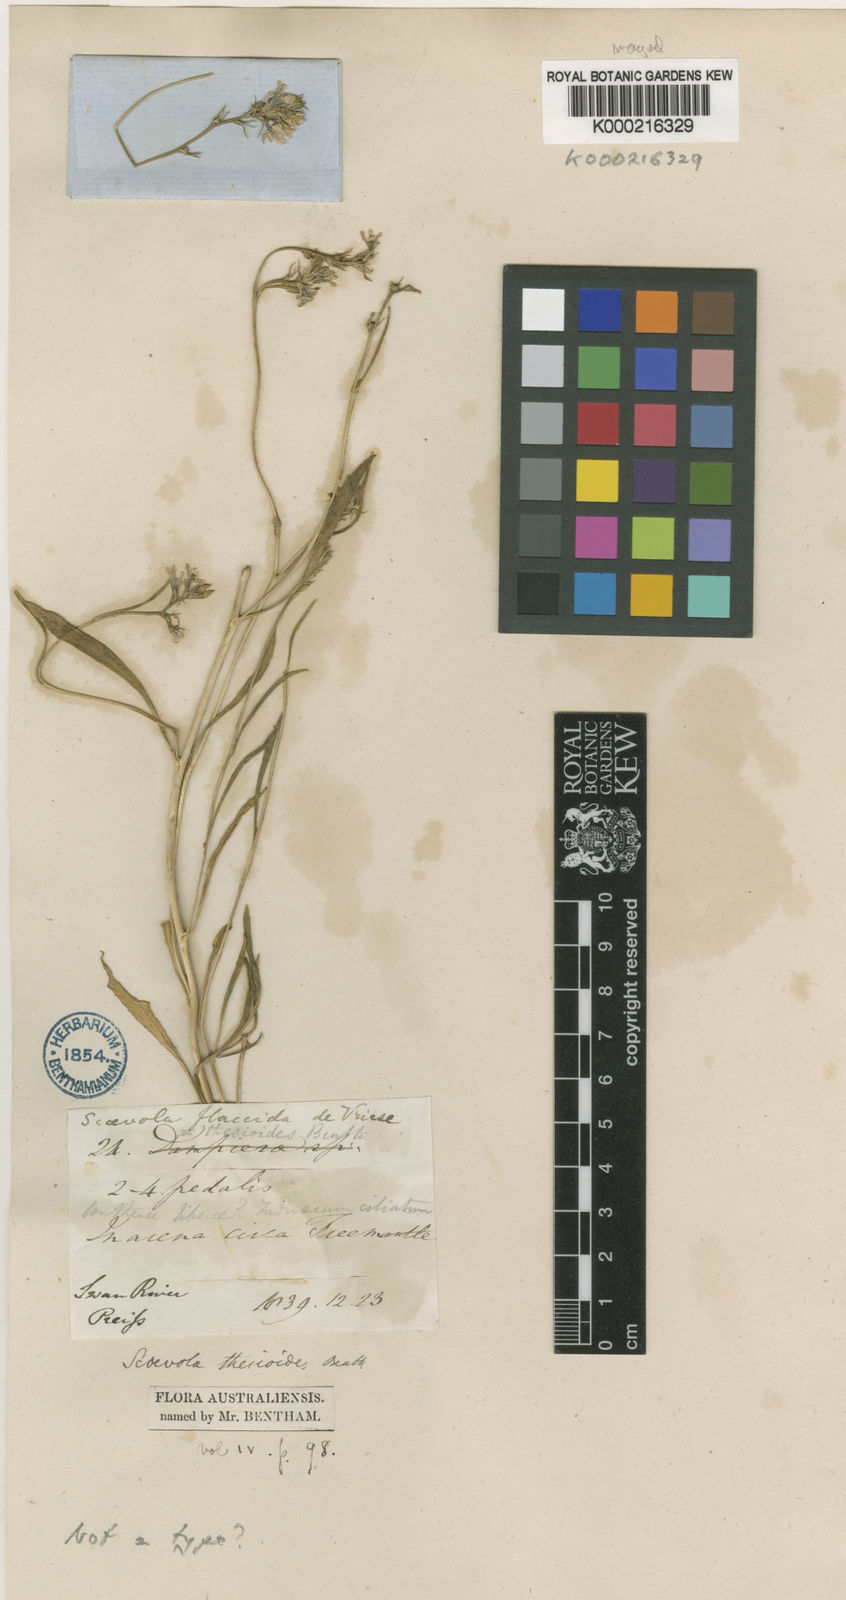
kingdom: Plantae
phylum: Tracheophyta
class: Magnoliopsida
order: Asterales
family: Goodeniaceae
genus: Scaevola
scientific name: Scaevola thesioides
